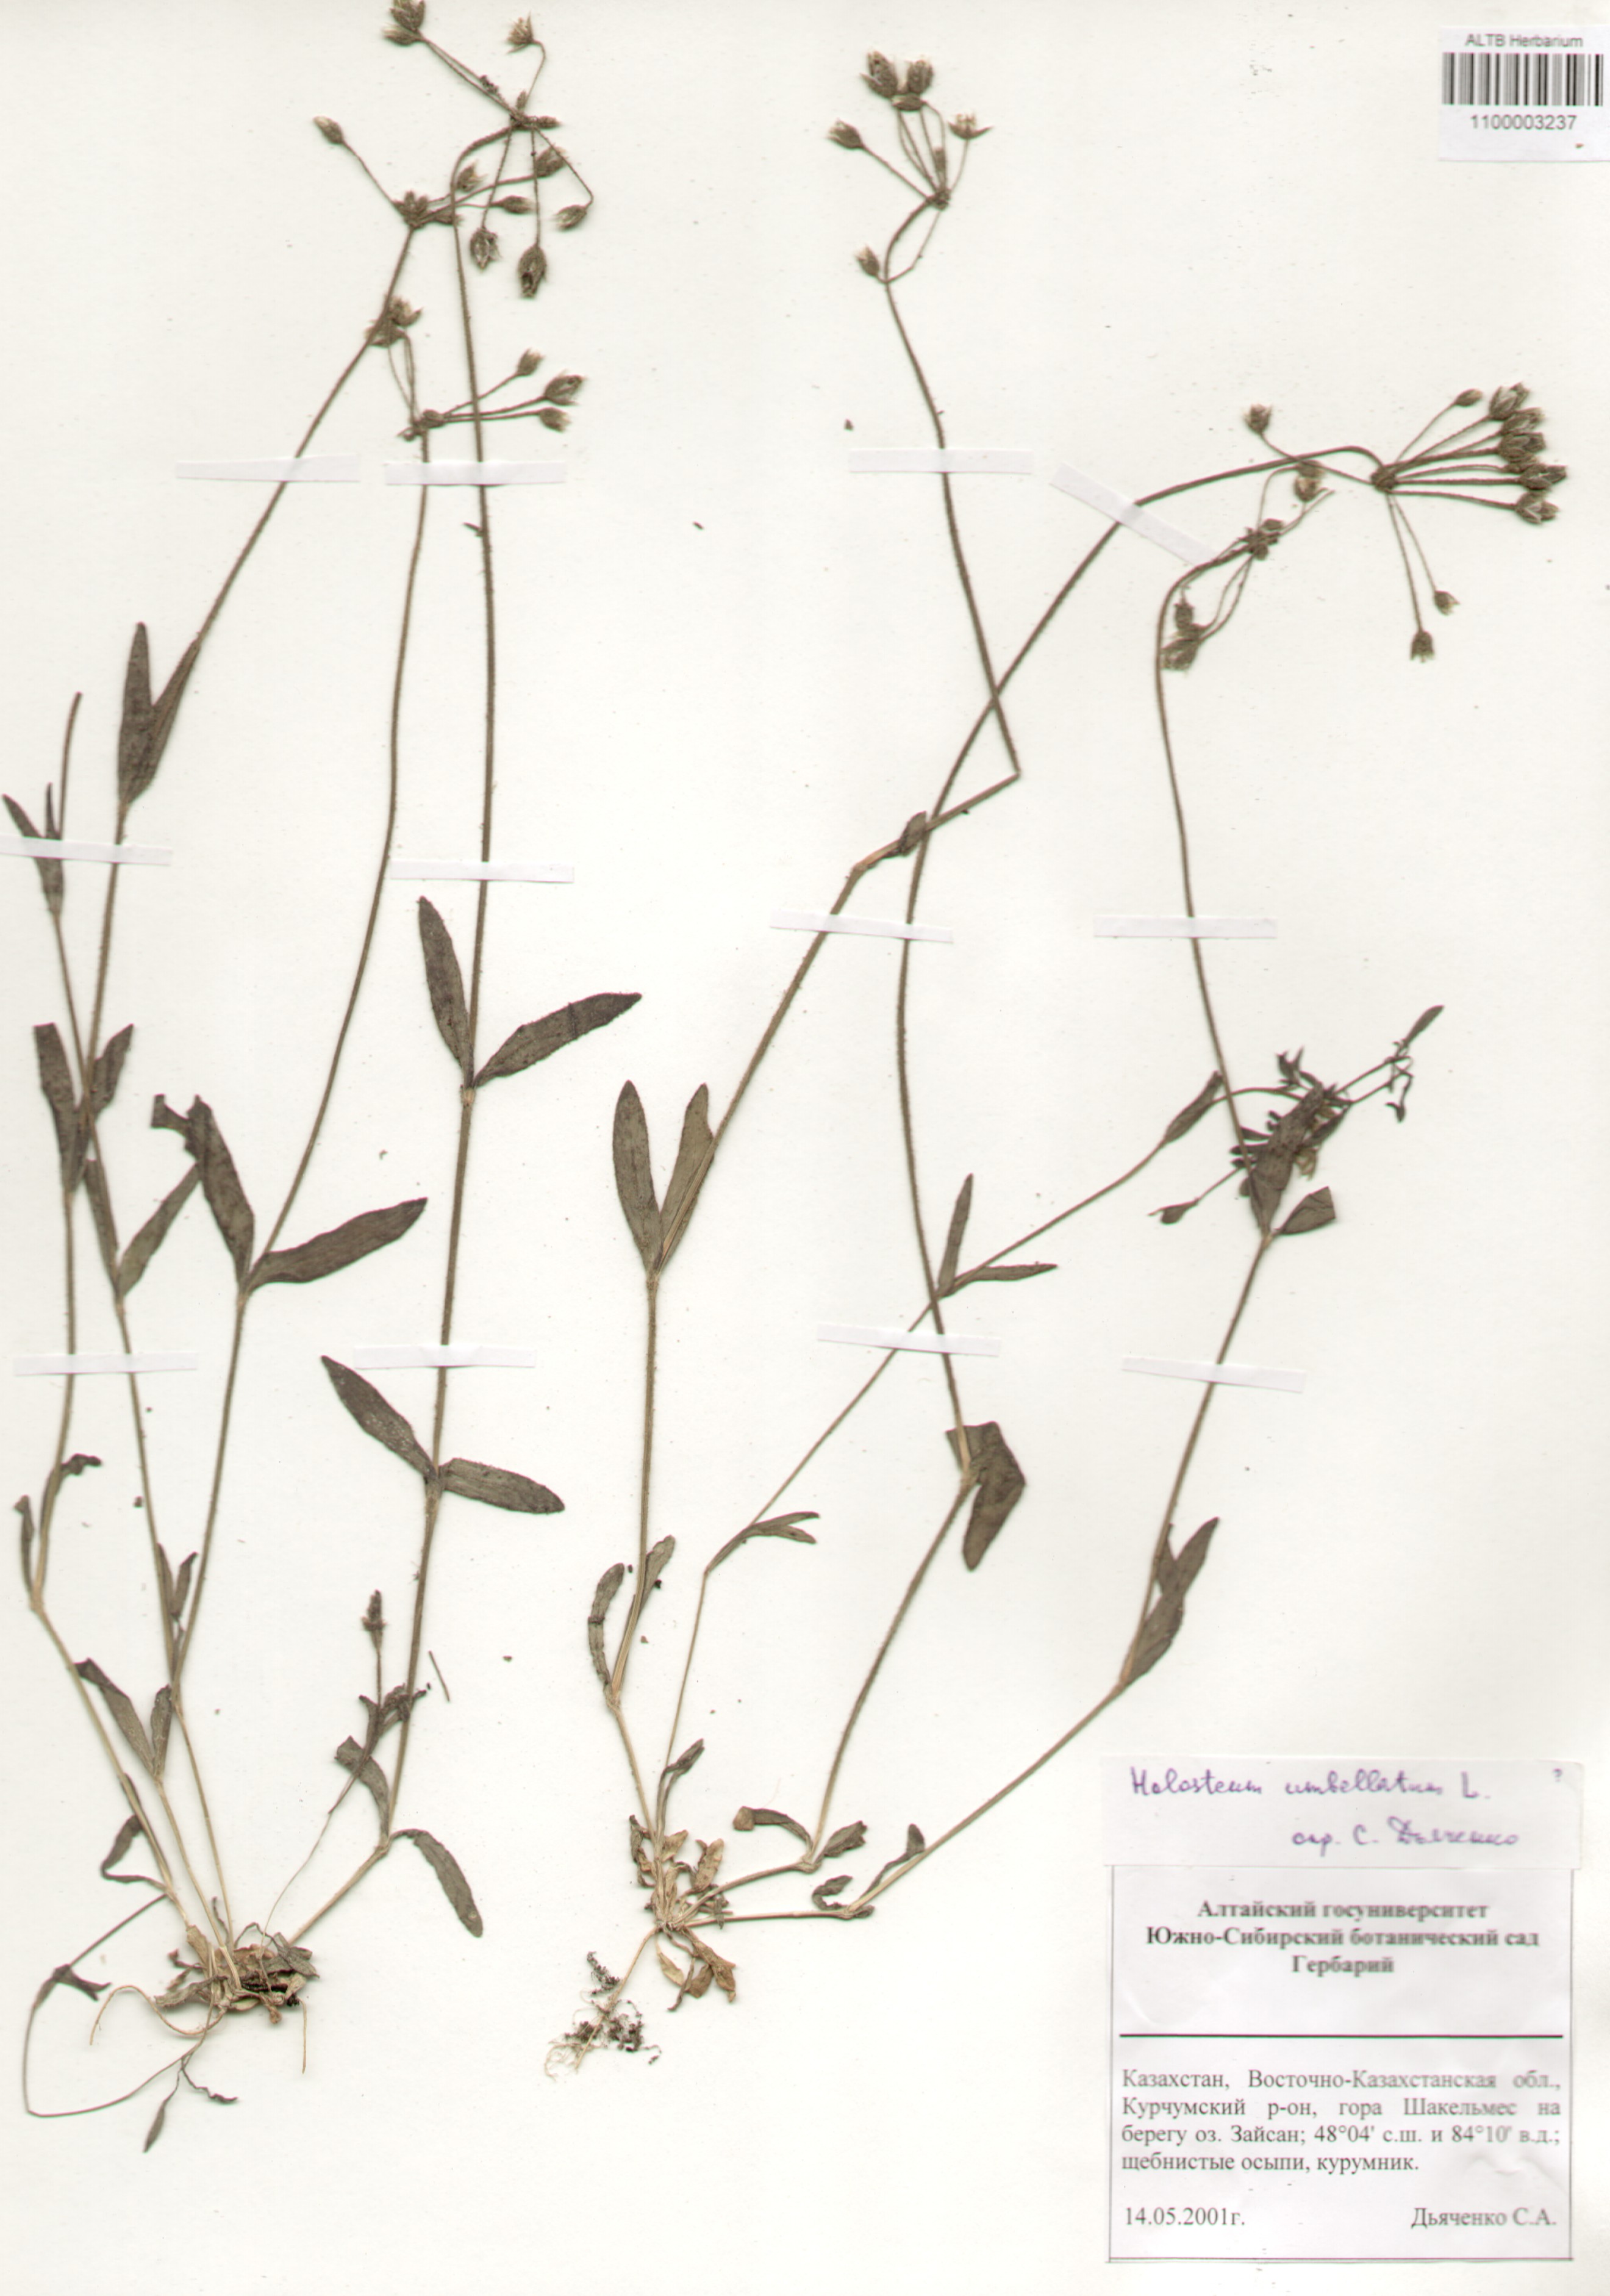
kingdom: Plantae
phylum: Tracheophyta
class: Magnoliopsida
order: Caryophyllales
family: Caryophyllaceae
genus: Holosteum
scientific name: Holosteum umbellatum
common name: Jagged chickweed
